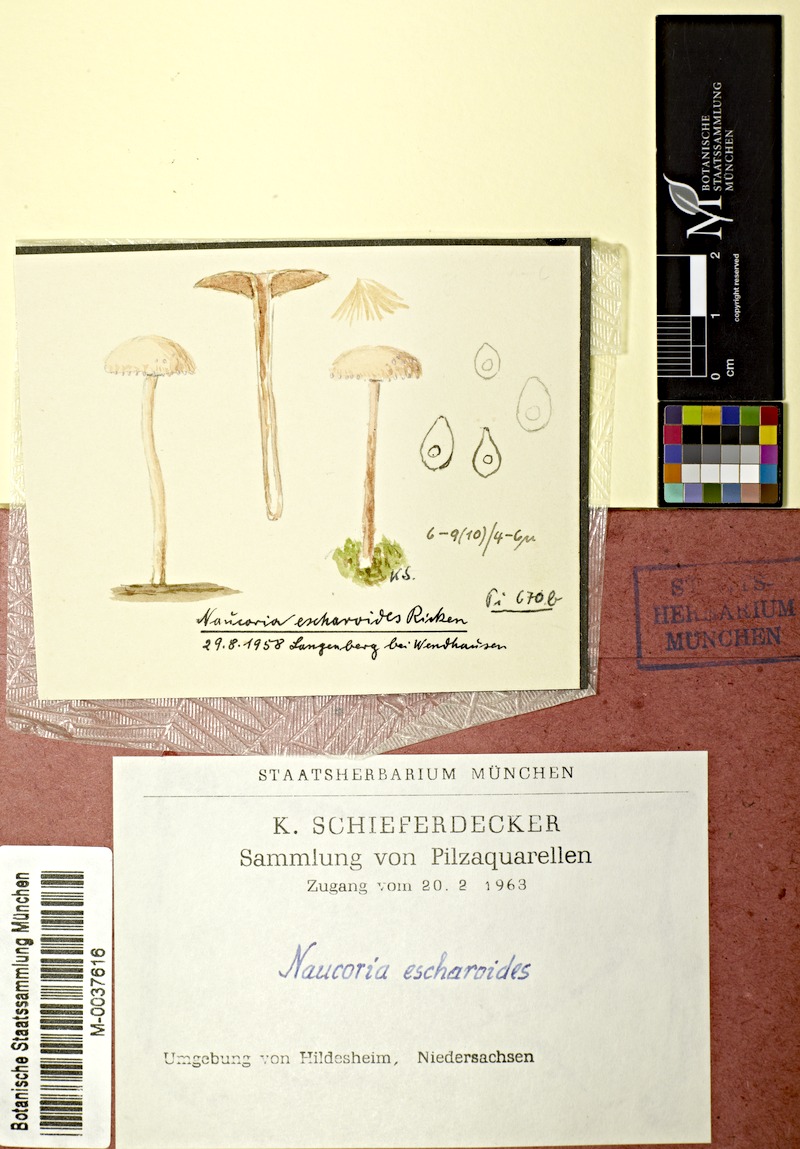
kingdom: Fungi
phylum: Basidiomycota
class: Agaricomycetes
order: Agaricales
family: Tubariaceae
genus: Tubaria
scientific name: Tubaria conspersa
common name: Felted twiglet
